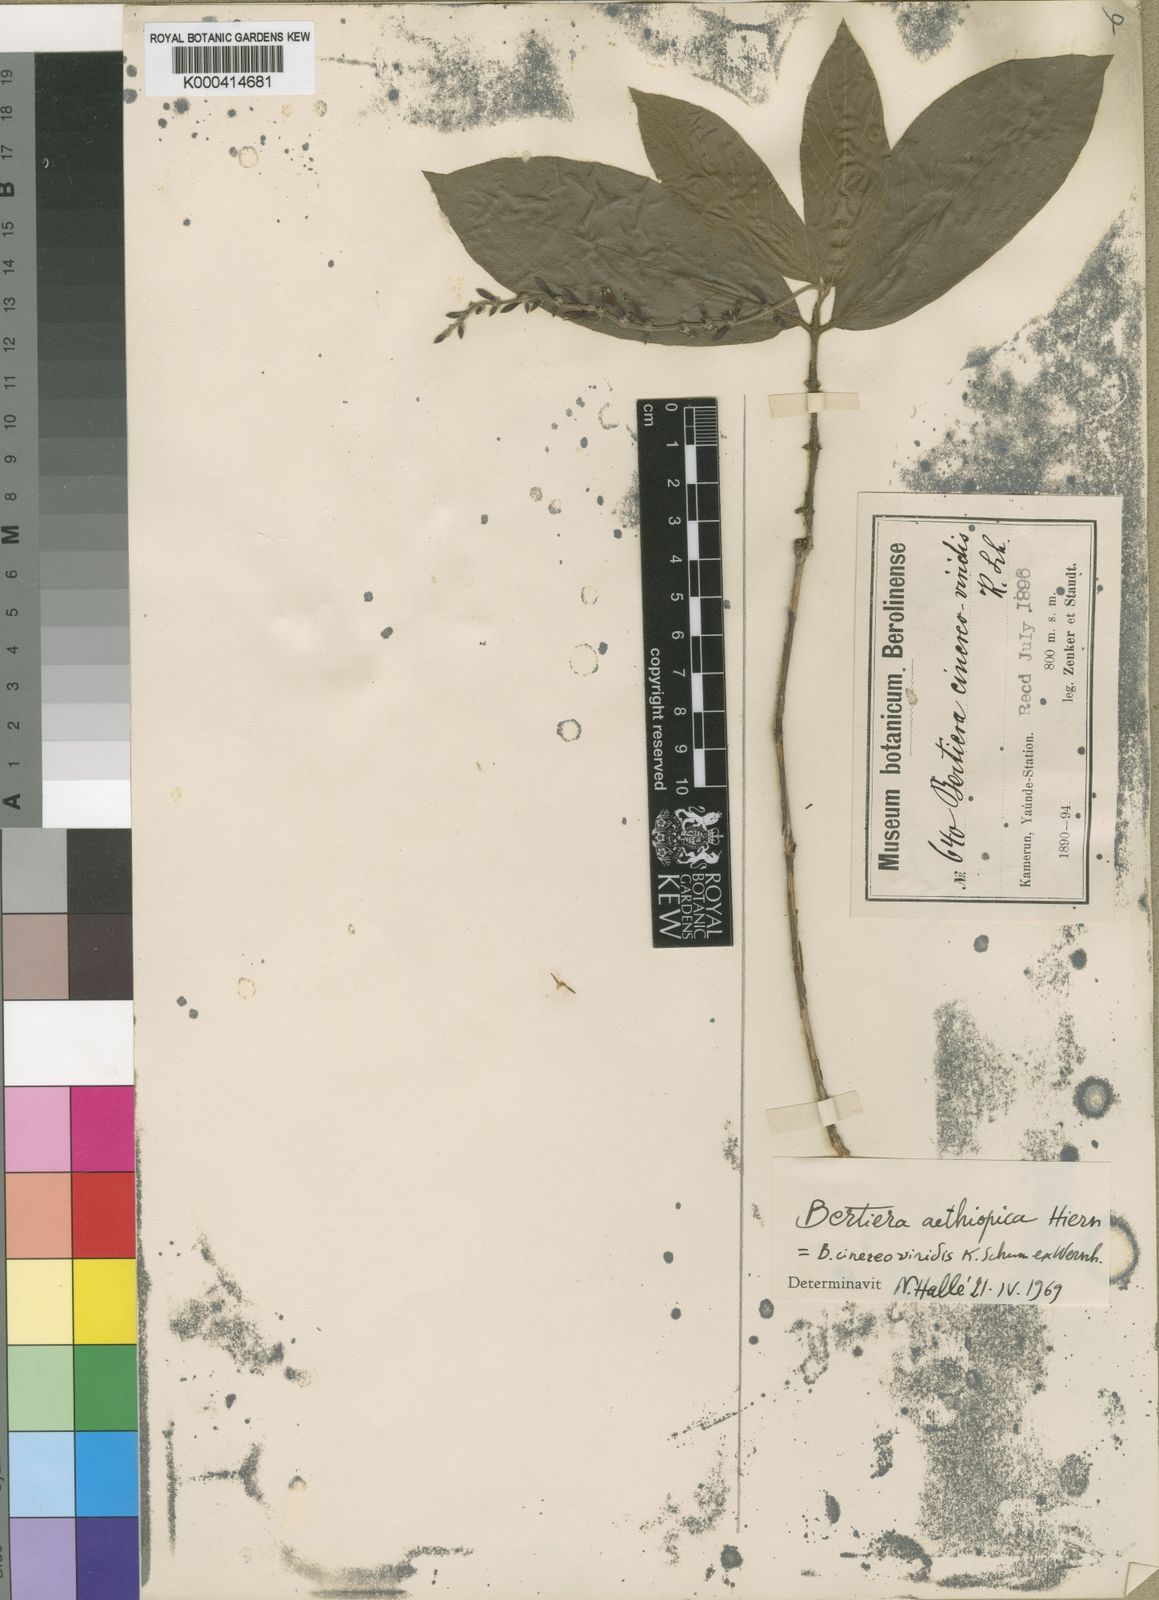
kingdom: Plantae
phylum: Tracheophyta
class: Magnoliopsida
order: Gentianales
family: Rubiaceae
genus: Bertiera
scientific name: Bertiera aethiopica
